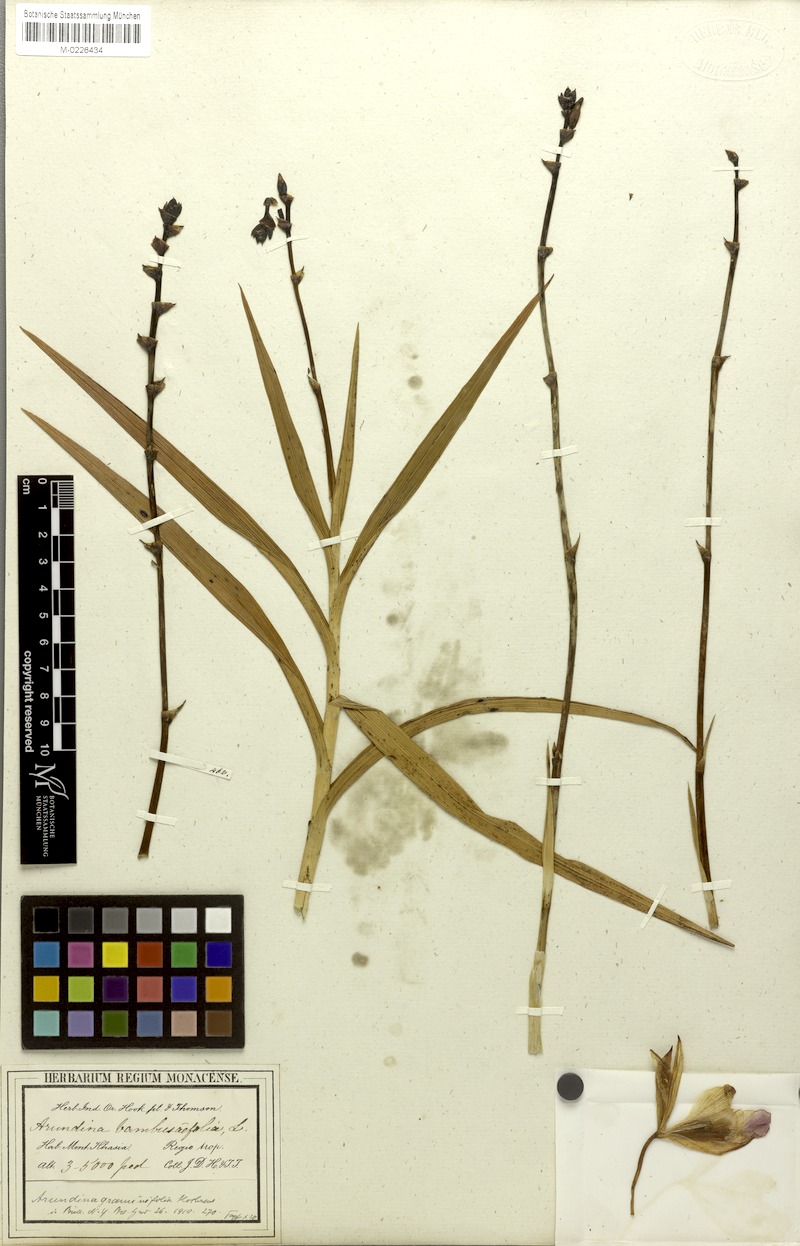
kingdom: Plantae
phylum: Tracheophyta
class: Liliopsida
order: Asparagales
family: Orchidaceae
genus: Arundina
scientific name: Arundina graminifolia
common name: Bamboo orchid
